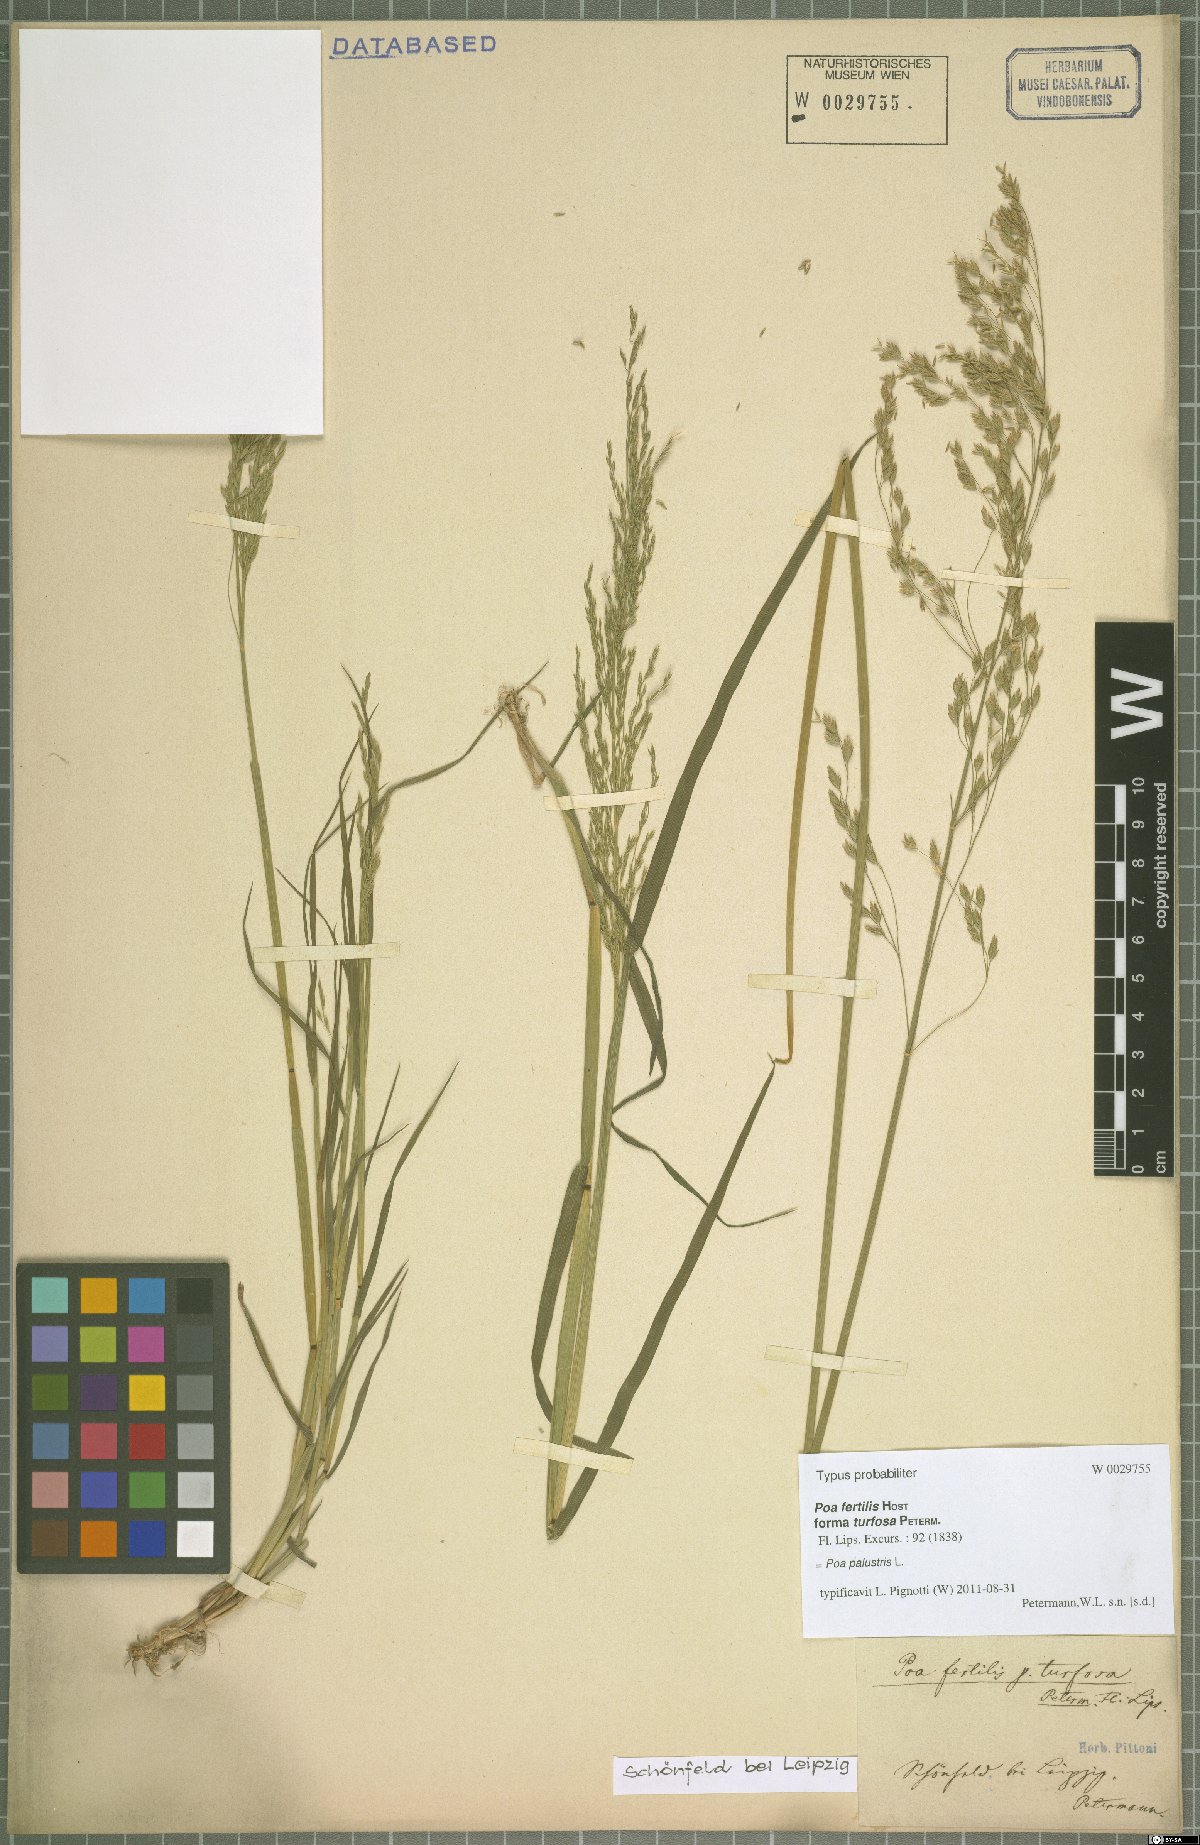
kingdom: Plantae
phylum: Tracheophyta
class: Liliopsida
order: Poales
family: Poaceae
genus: Poa
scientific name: Poa palustris
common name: Swamp meadow-grass
